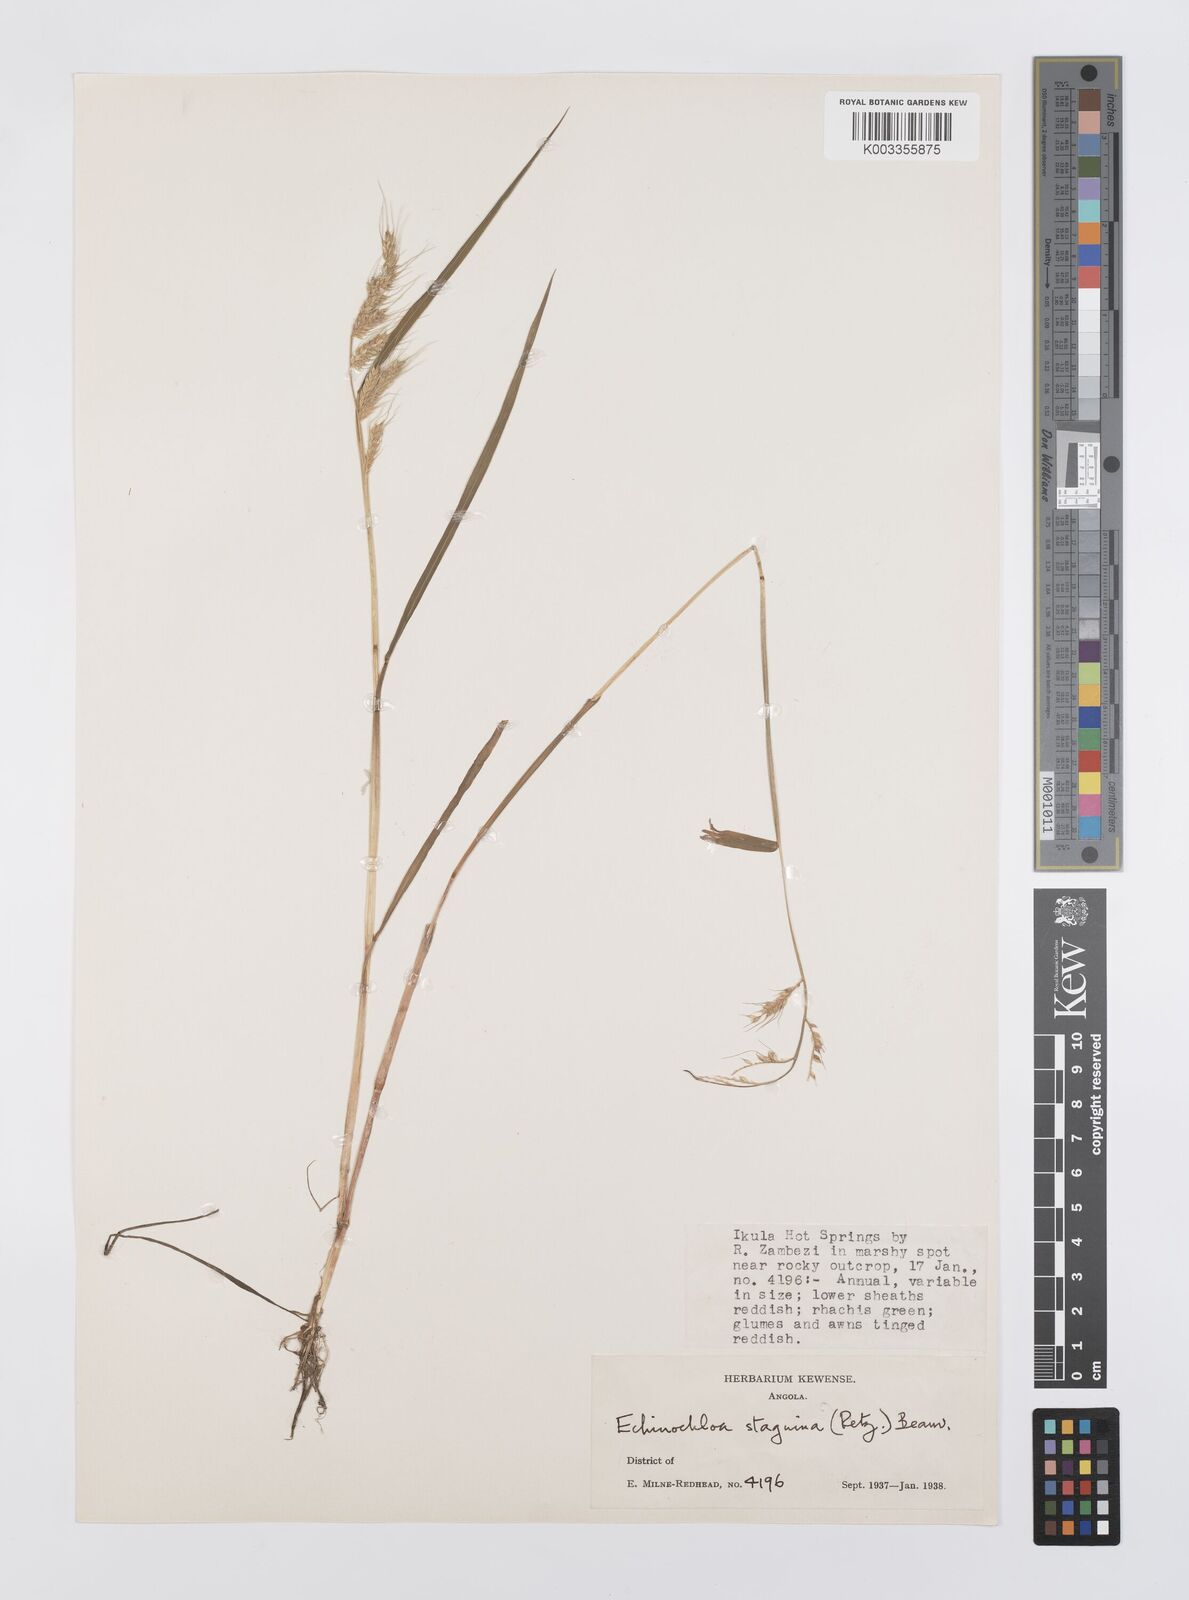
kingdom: Plantae
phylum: Tracheophyta
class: Liliopsida
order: Poales
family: Poaceae
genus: Echinochloa
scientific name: Echinochloa jubata
